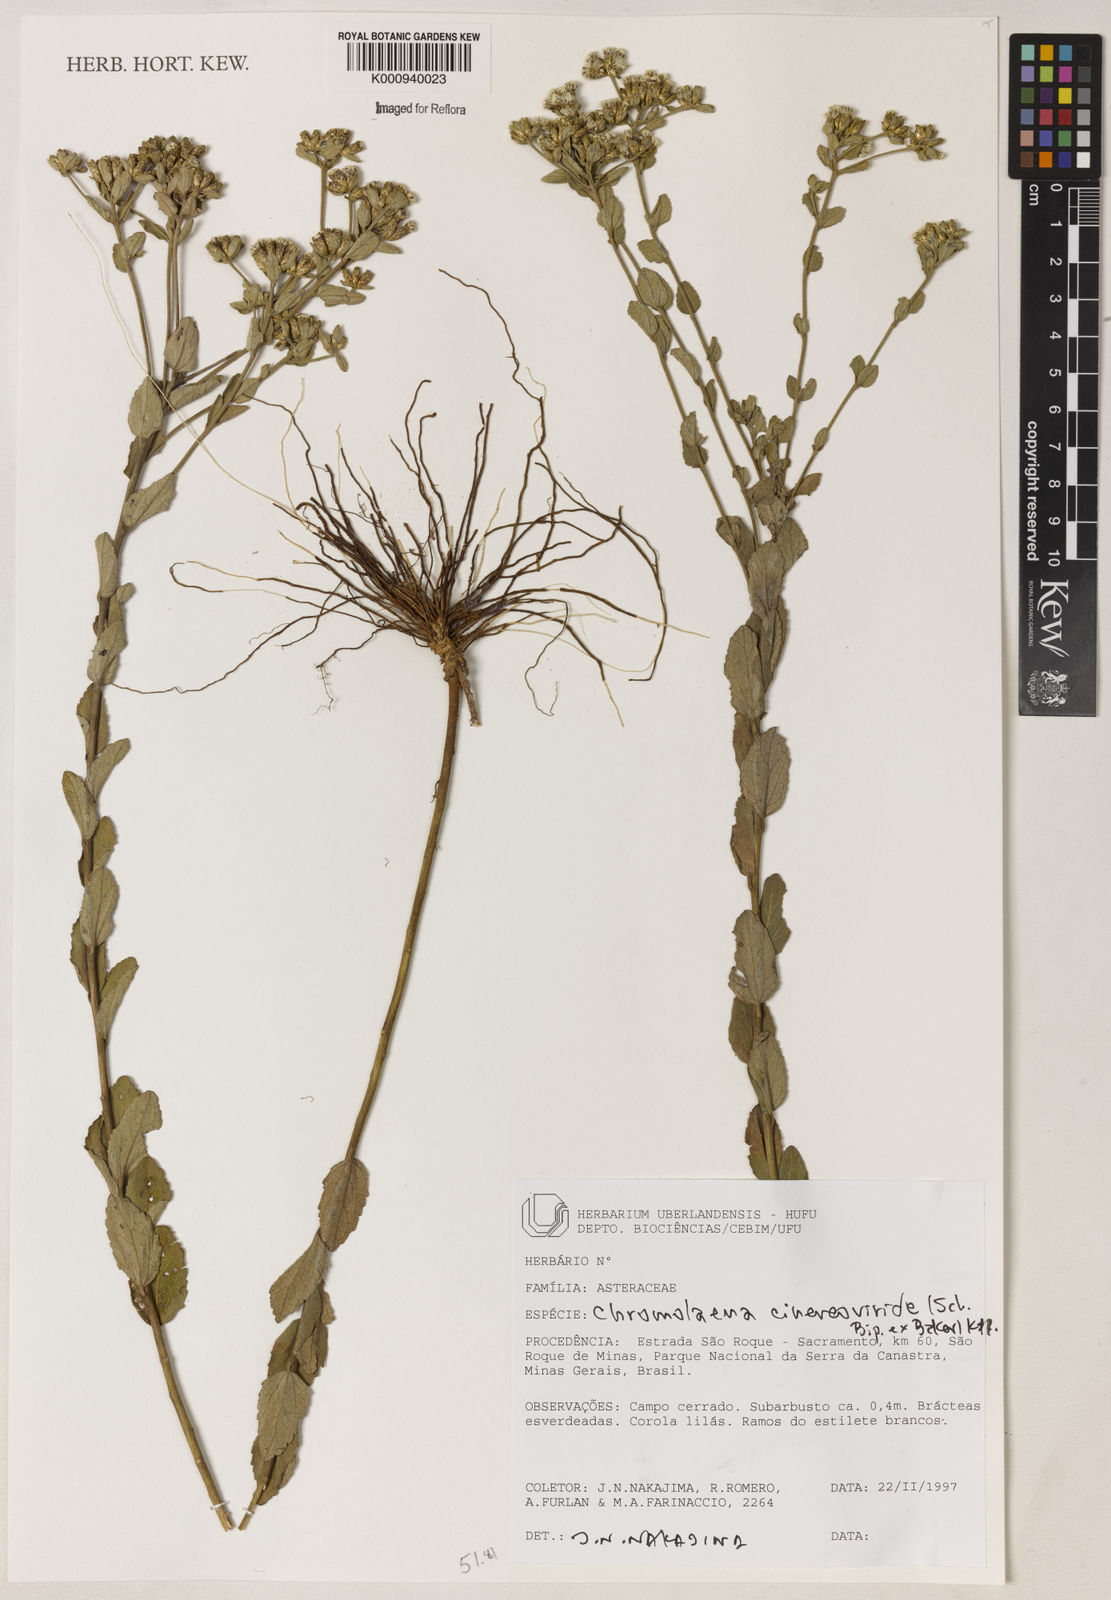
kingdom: Plantae
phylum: Tracheophyta
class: Magnoliopsida
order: Asterales
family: Asteraceae
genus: Chromolaena
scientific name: Chromolaena cinereoviridis
